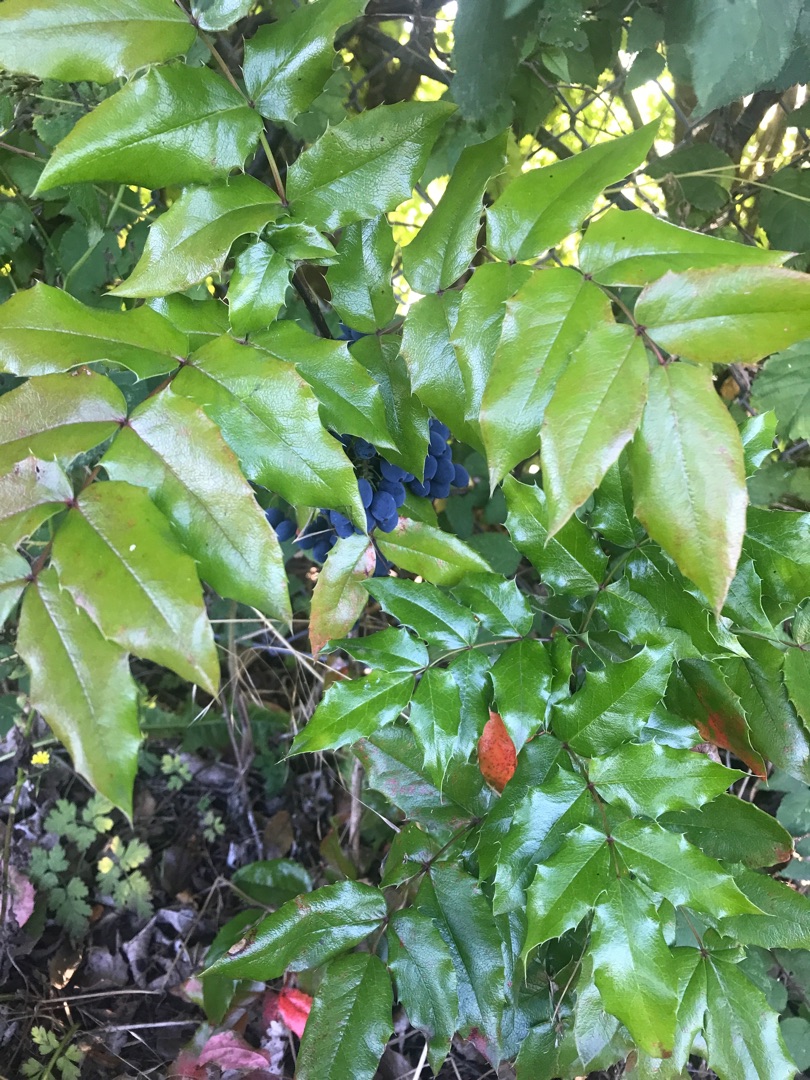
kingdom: Plantae
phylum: Tracheophyta
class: Magnoliopsida
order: Ranunculales
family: Berberidaceae
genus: Mahonia
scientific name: Mahonia aquifolium
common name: Almindelig mahonie
